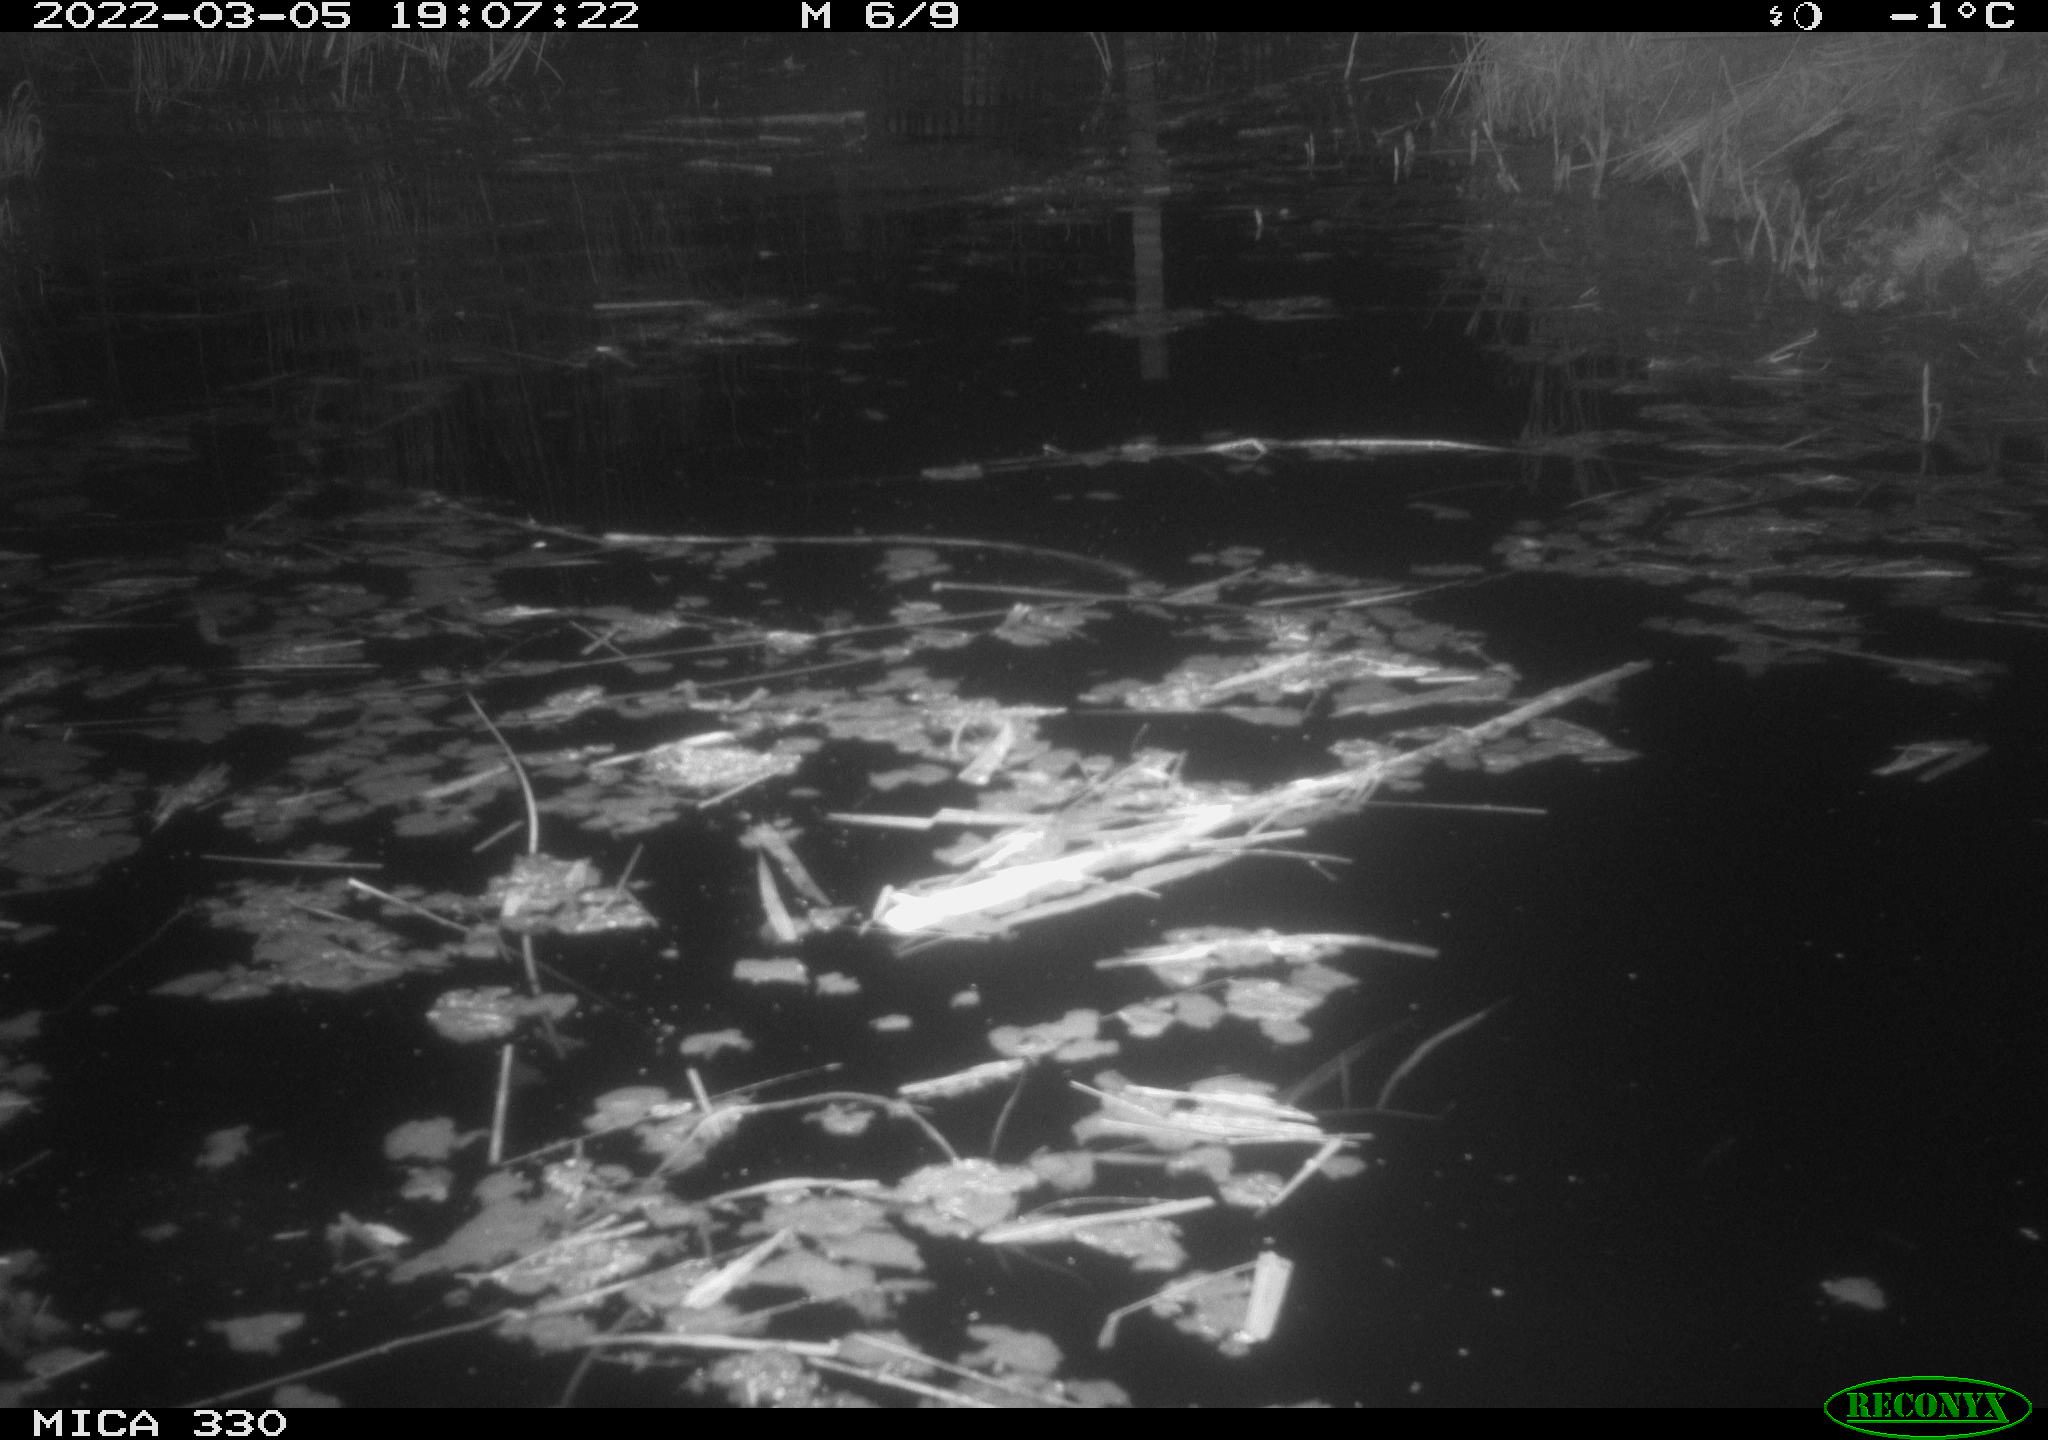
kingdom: Animalia
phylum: Chordata
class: Aves
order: Gruiformes
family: Rallidae
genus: Gallinula
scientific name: Gallinula chloropus
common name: Common moorhen
